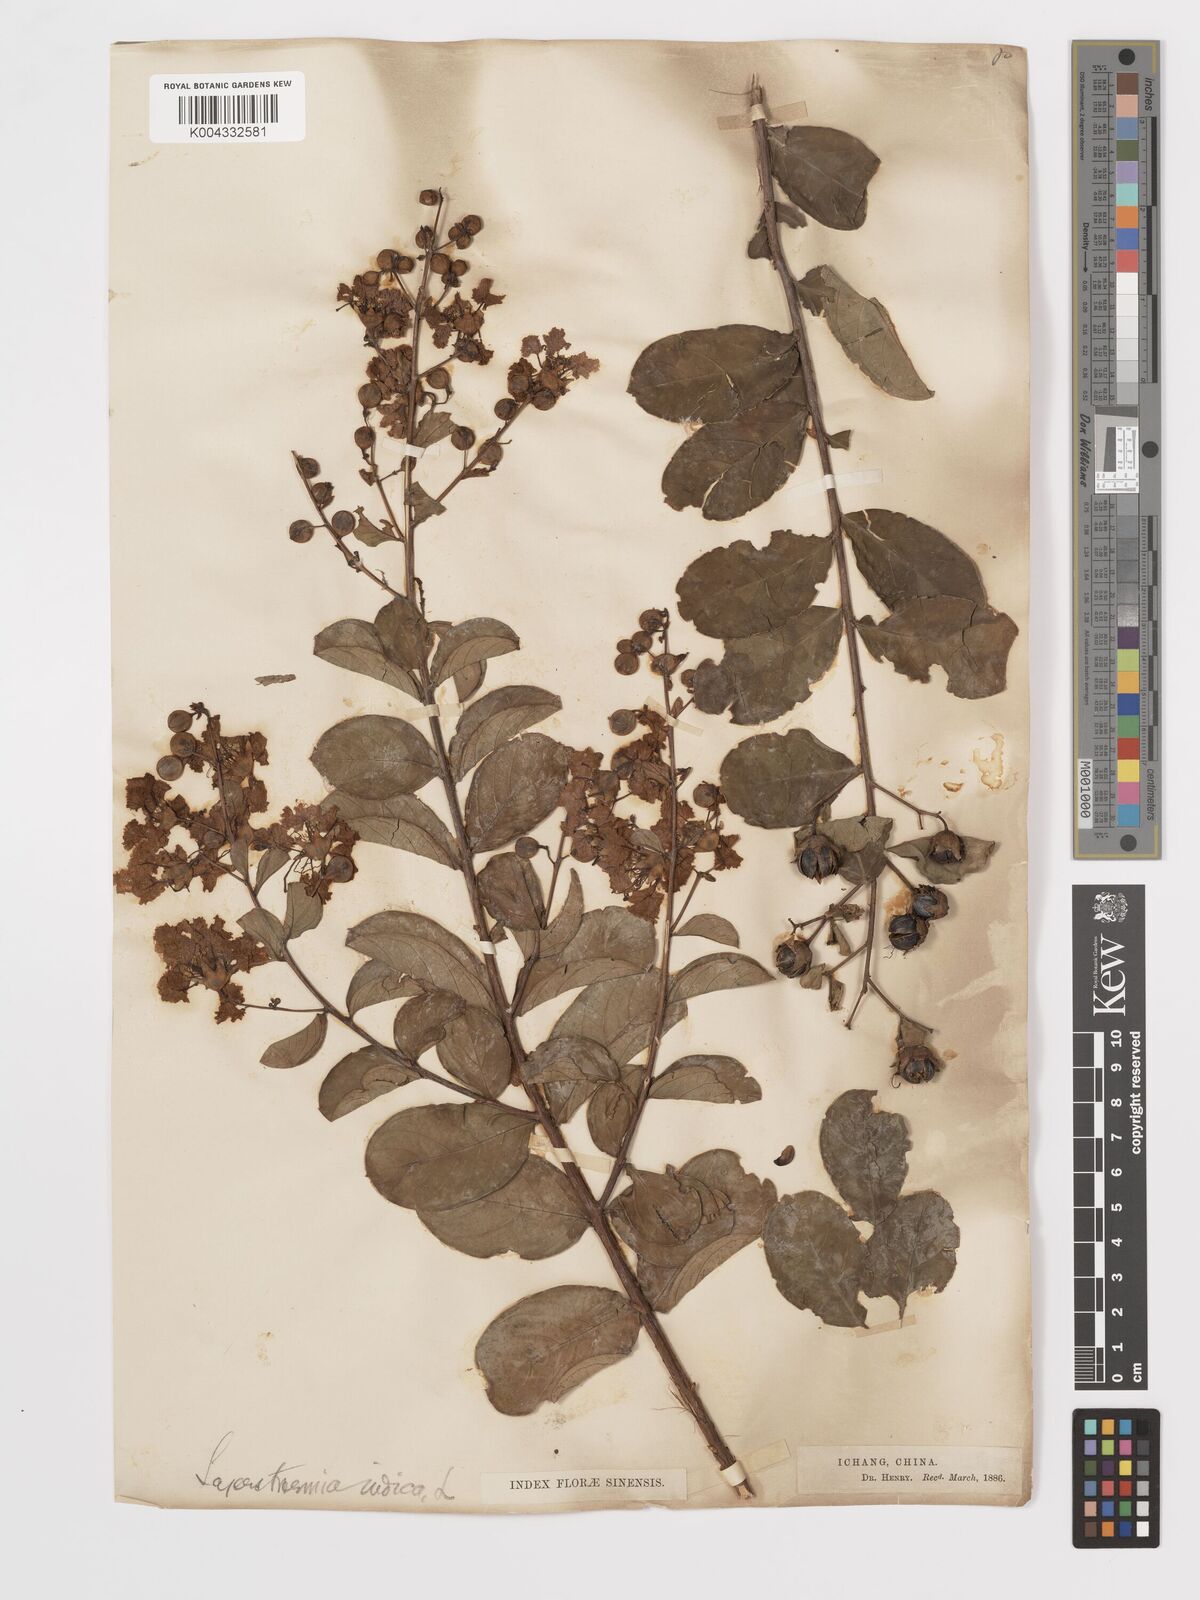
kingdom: Plantae
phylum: Tracheophyta
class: Magnoliopsida
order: Myrtales
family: Lythraceae
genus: Lagerstroemia
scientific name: Lagerstroemia indica
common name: Crape-myrtle
